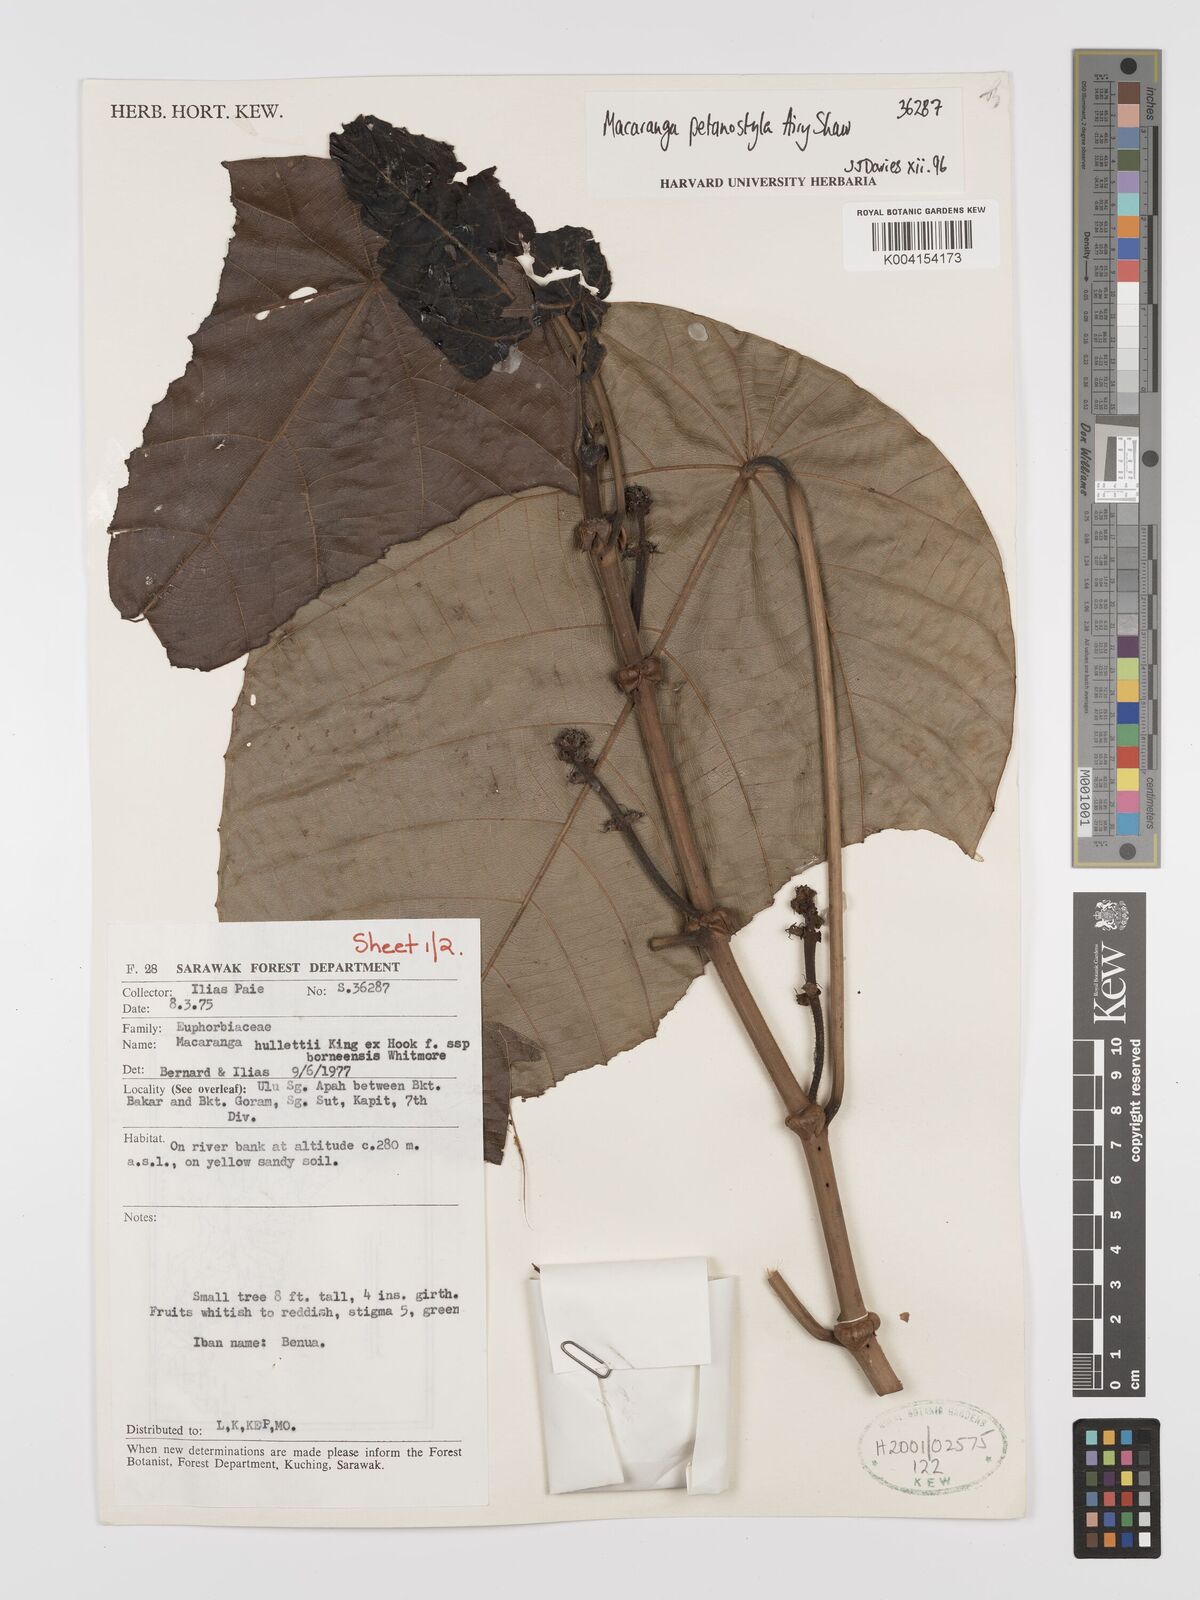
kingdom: Plantae
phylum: Tracheophyta
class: Magnoliopsida
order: Malpighiales
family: Euphorbiaceae
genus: Macaranga
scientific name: Macaranga petanostyla
